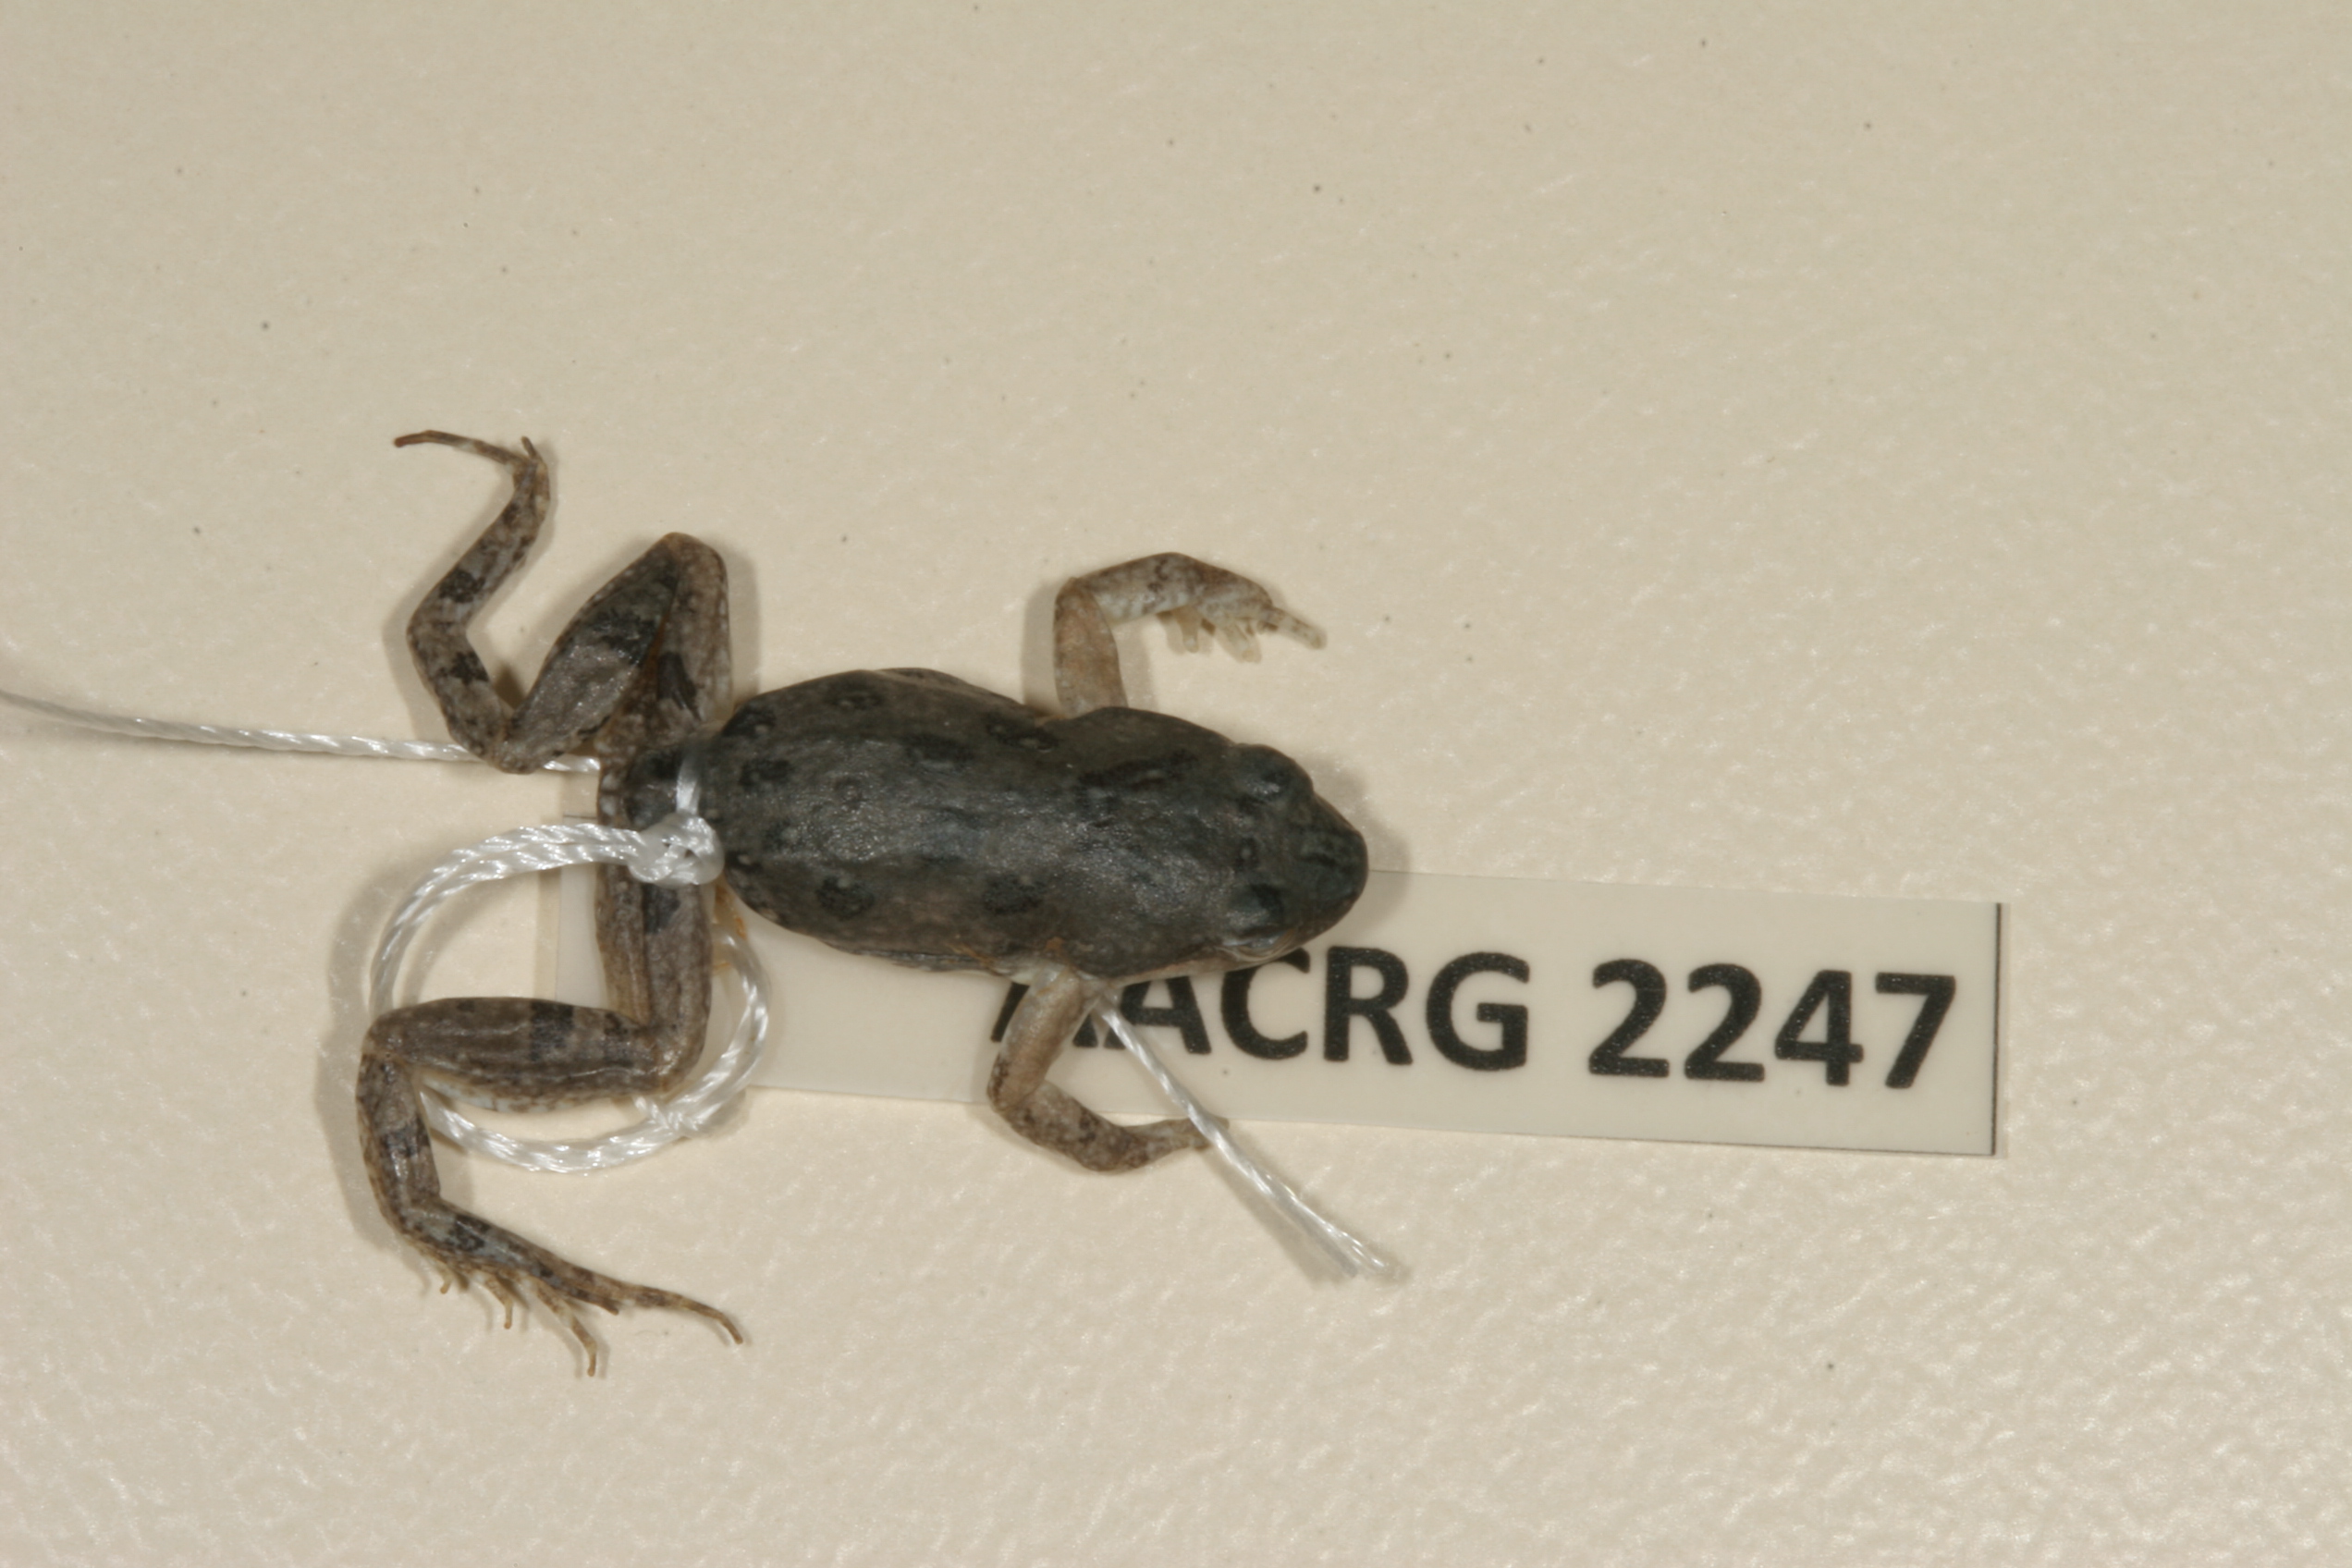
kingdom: Animalia
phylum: Chordata
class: Amphibia
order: Anura
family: Pyxicephalidae
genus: Cacosternum
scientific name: Cacosternum boettgeri
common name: Boettger's frog
